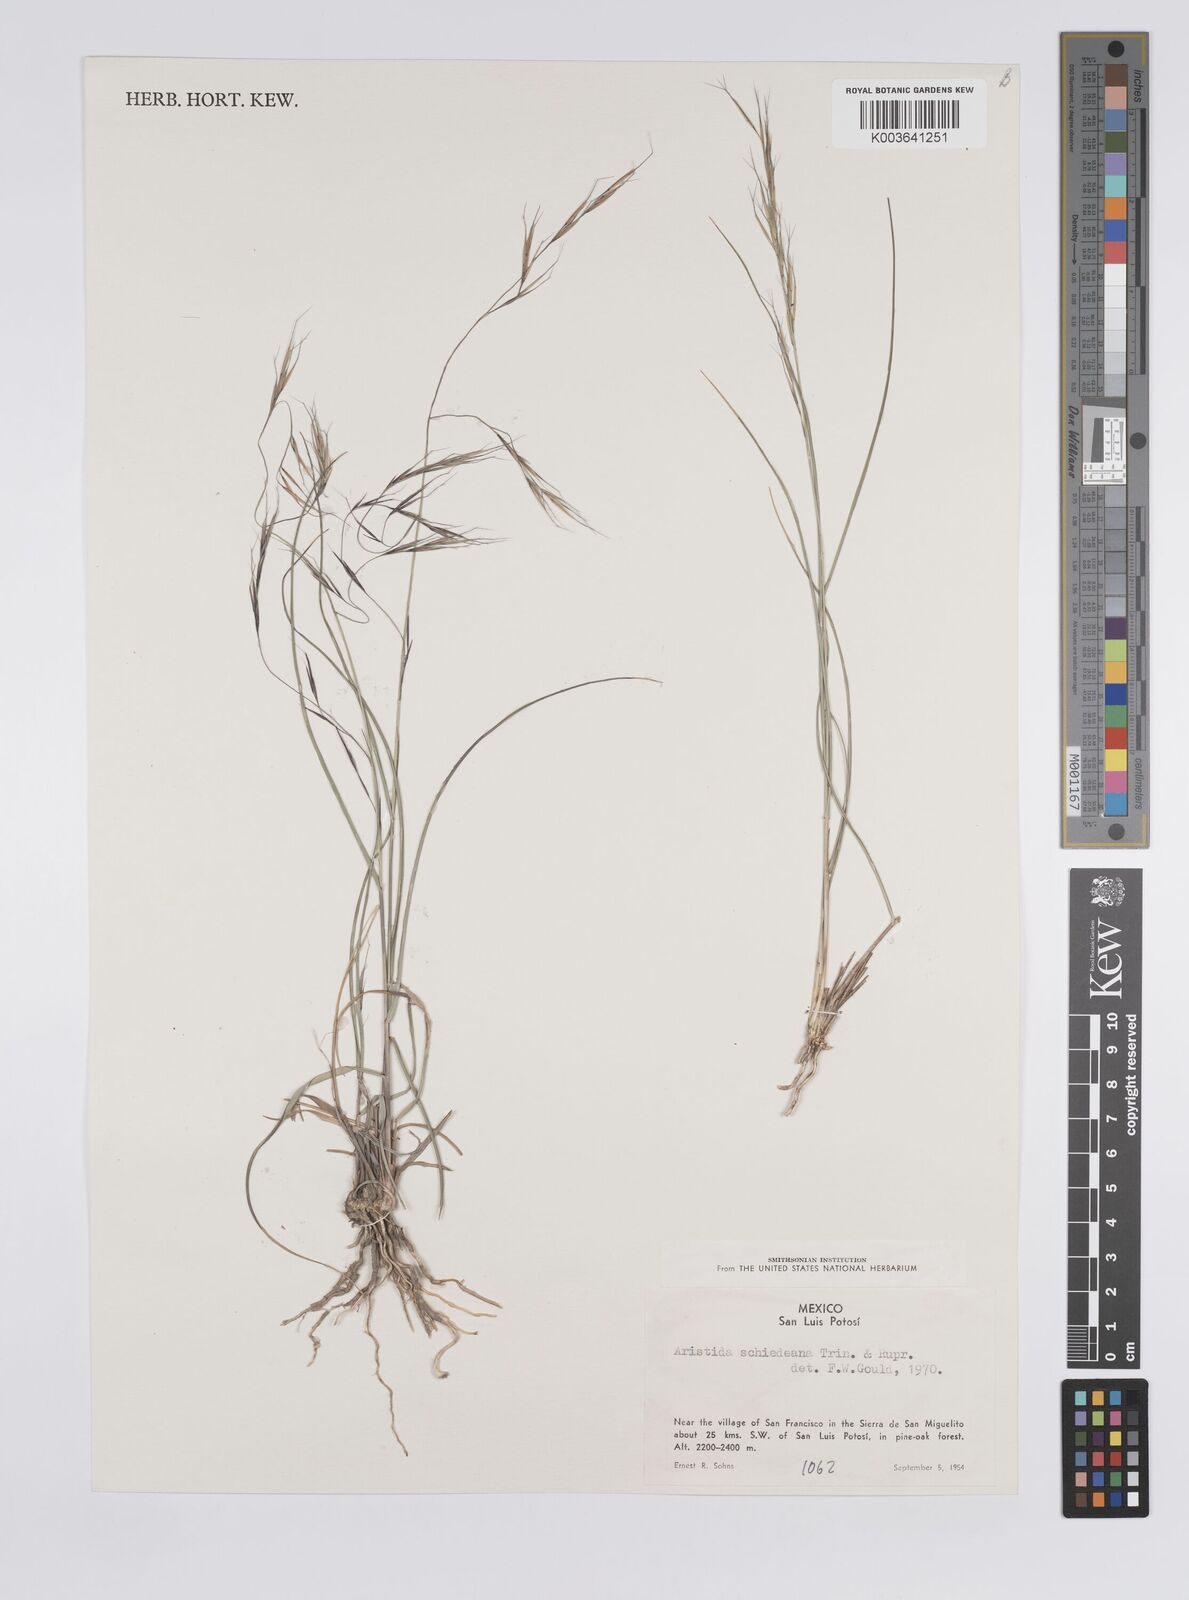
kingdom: Plantae
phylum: Tracheophyta
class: Liliopsida
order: Poales
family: Poaceae
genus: Aristida
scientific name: Aristida schiedeana
